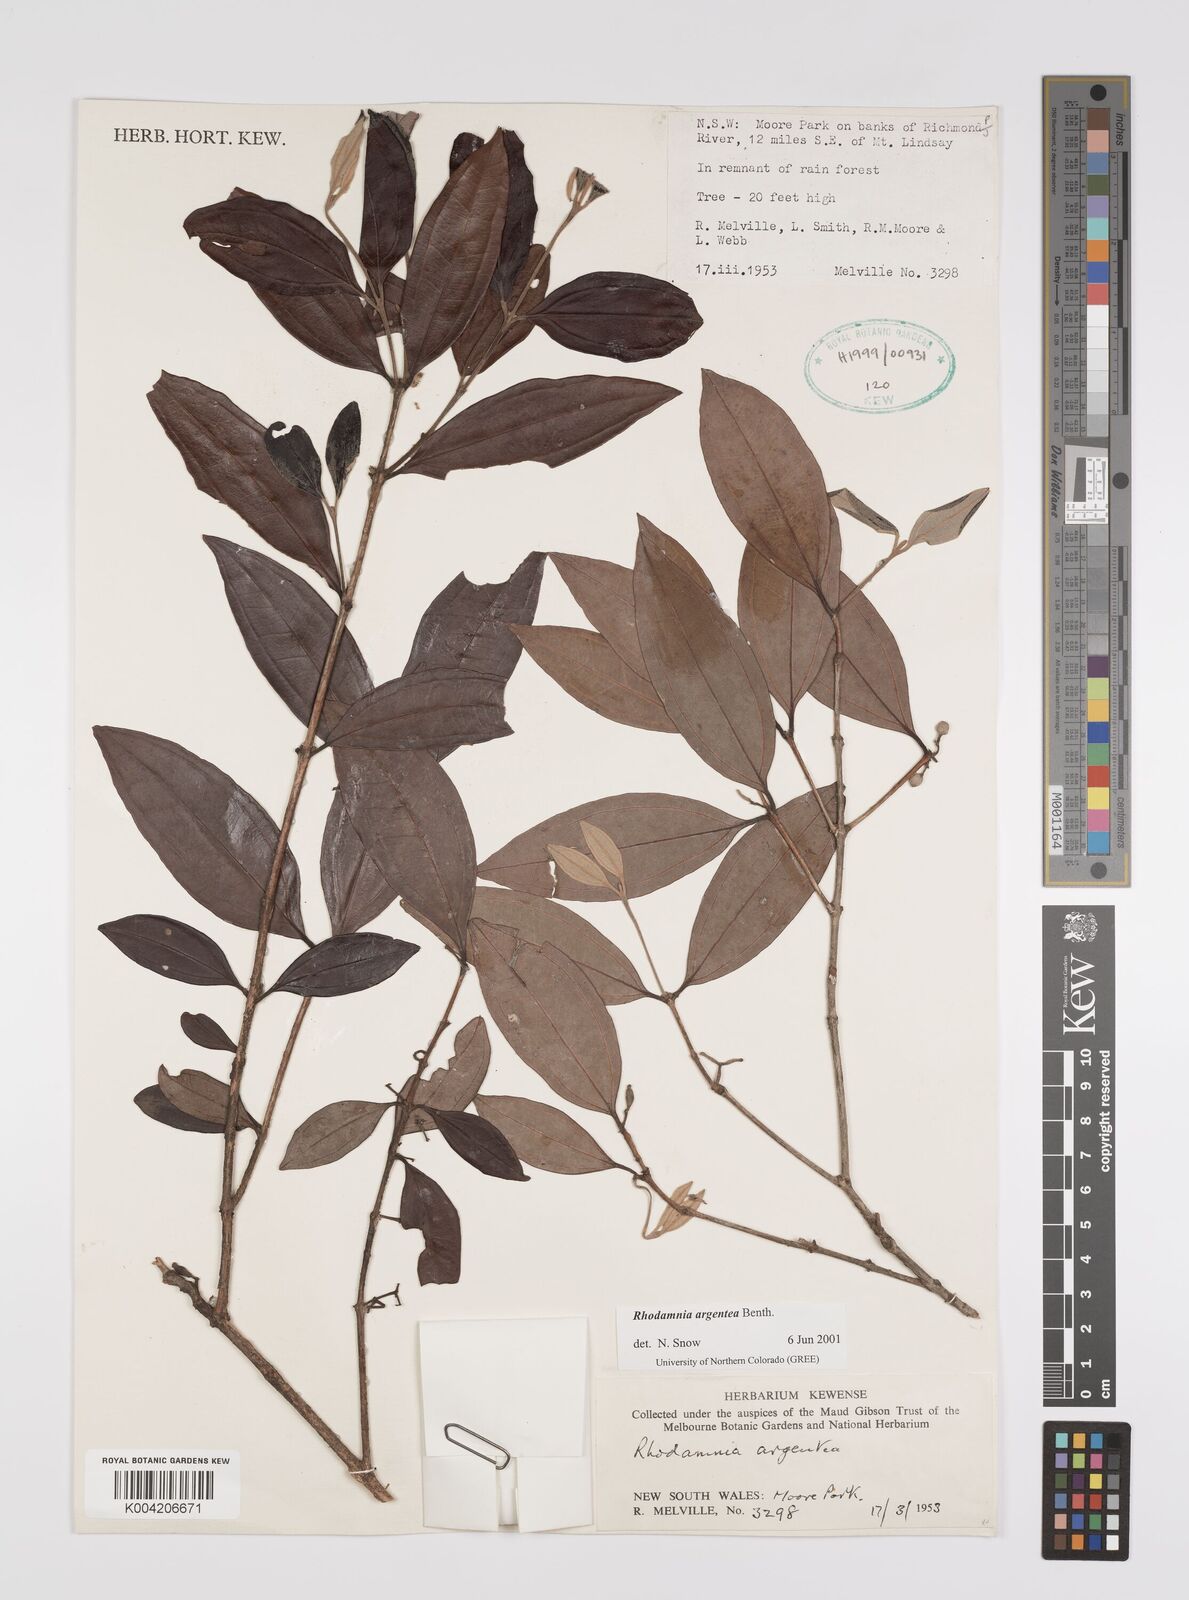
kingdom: Plantae
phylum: Tracheophyta
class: Magnoliopsida
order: Myrtales
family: Myrtaceae
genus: Rhodamnia
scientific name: Rhodamnia argentea
